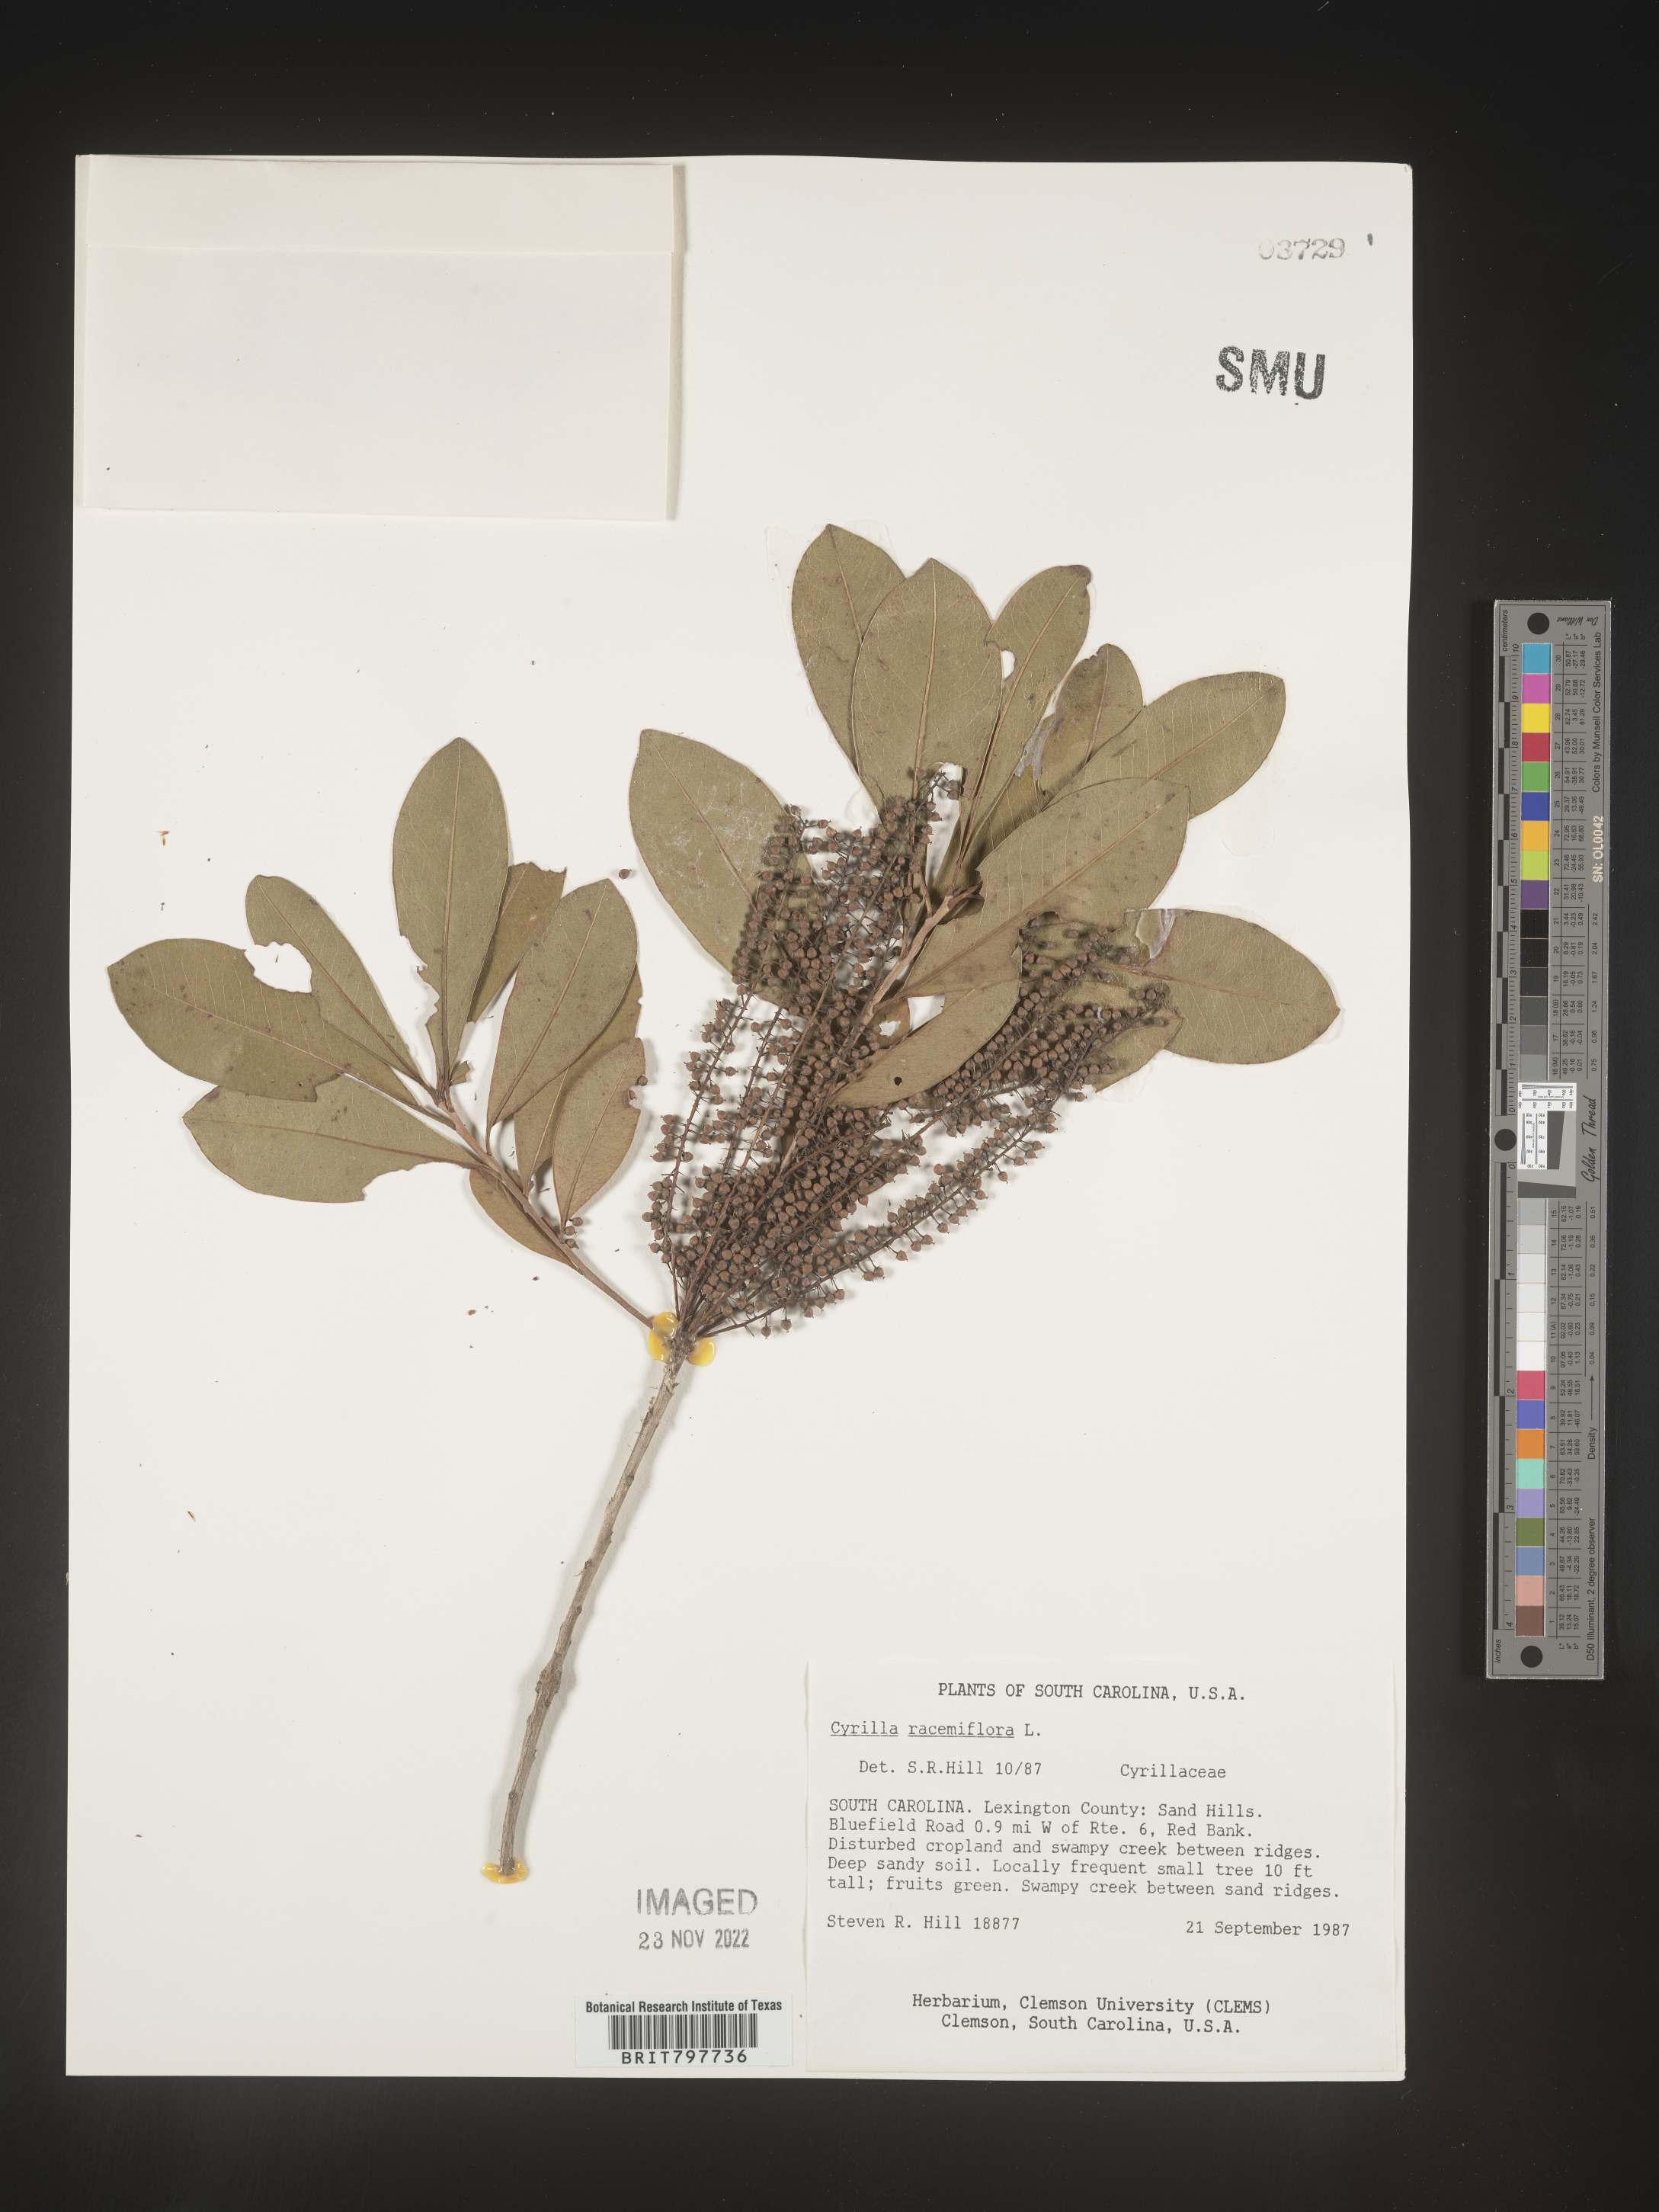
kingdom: Plantae
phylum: Tracheophyta
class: Magnoliopsida
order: Ericales
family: Cyrillaceae
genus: Cyrilla
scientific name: Cyrilla racemiflora
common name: Black titi
